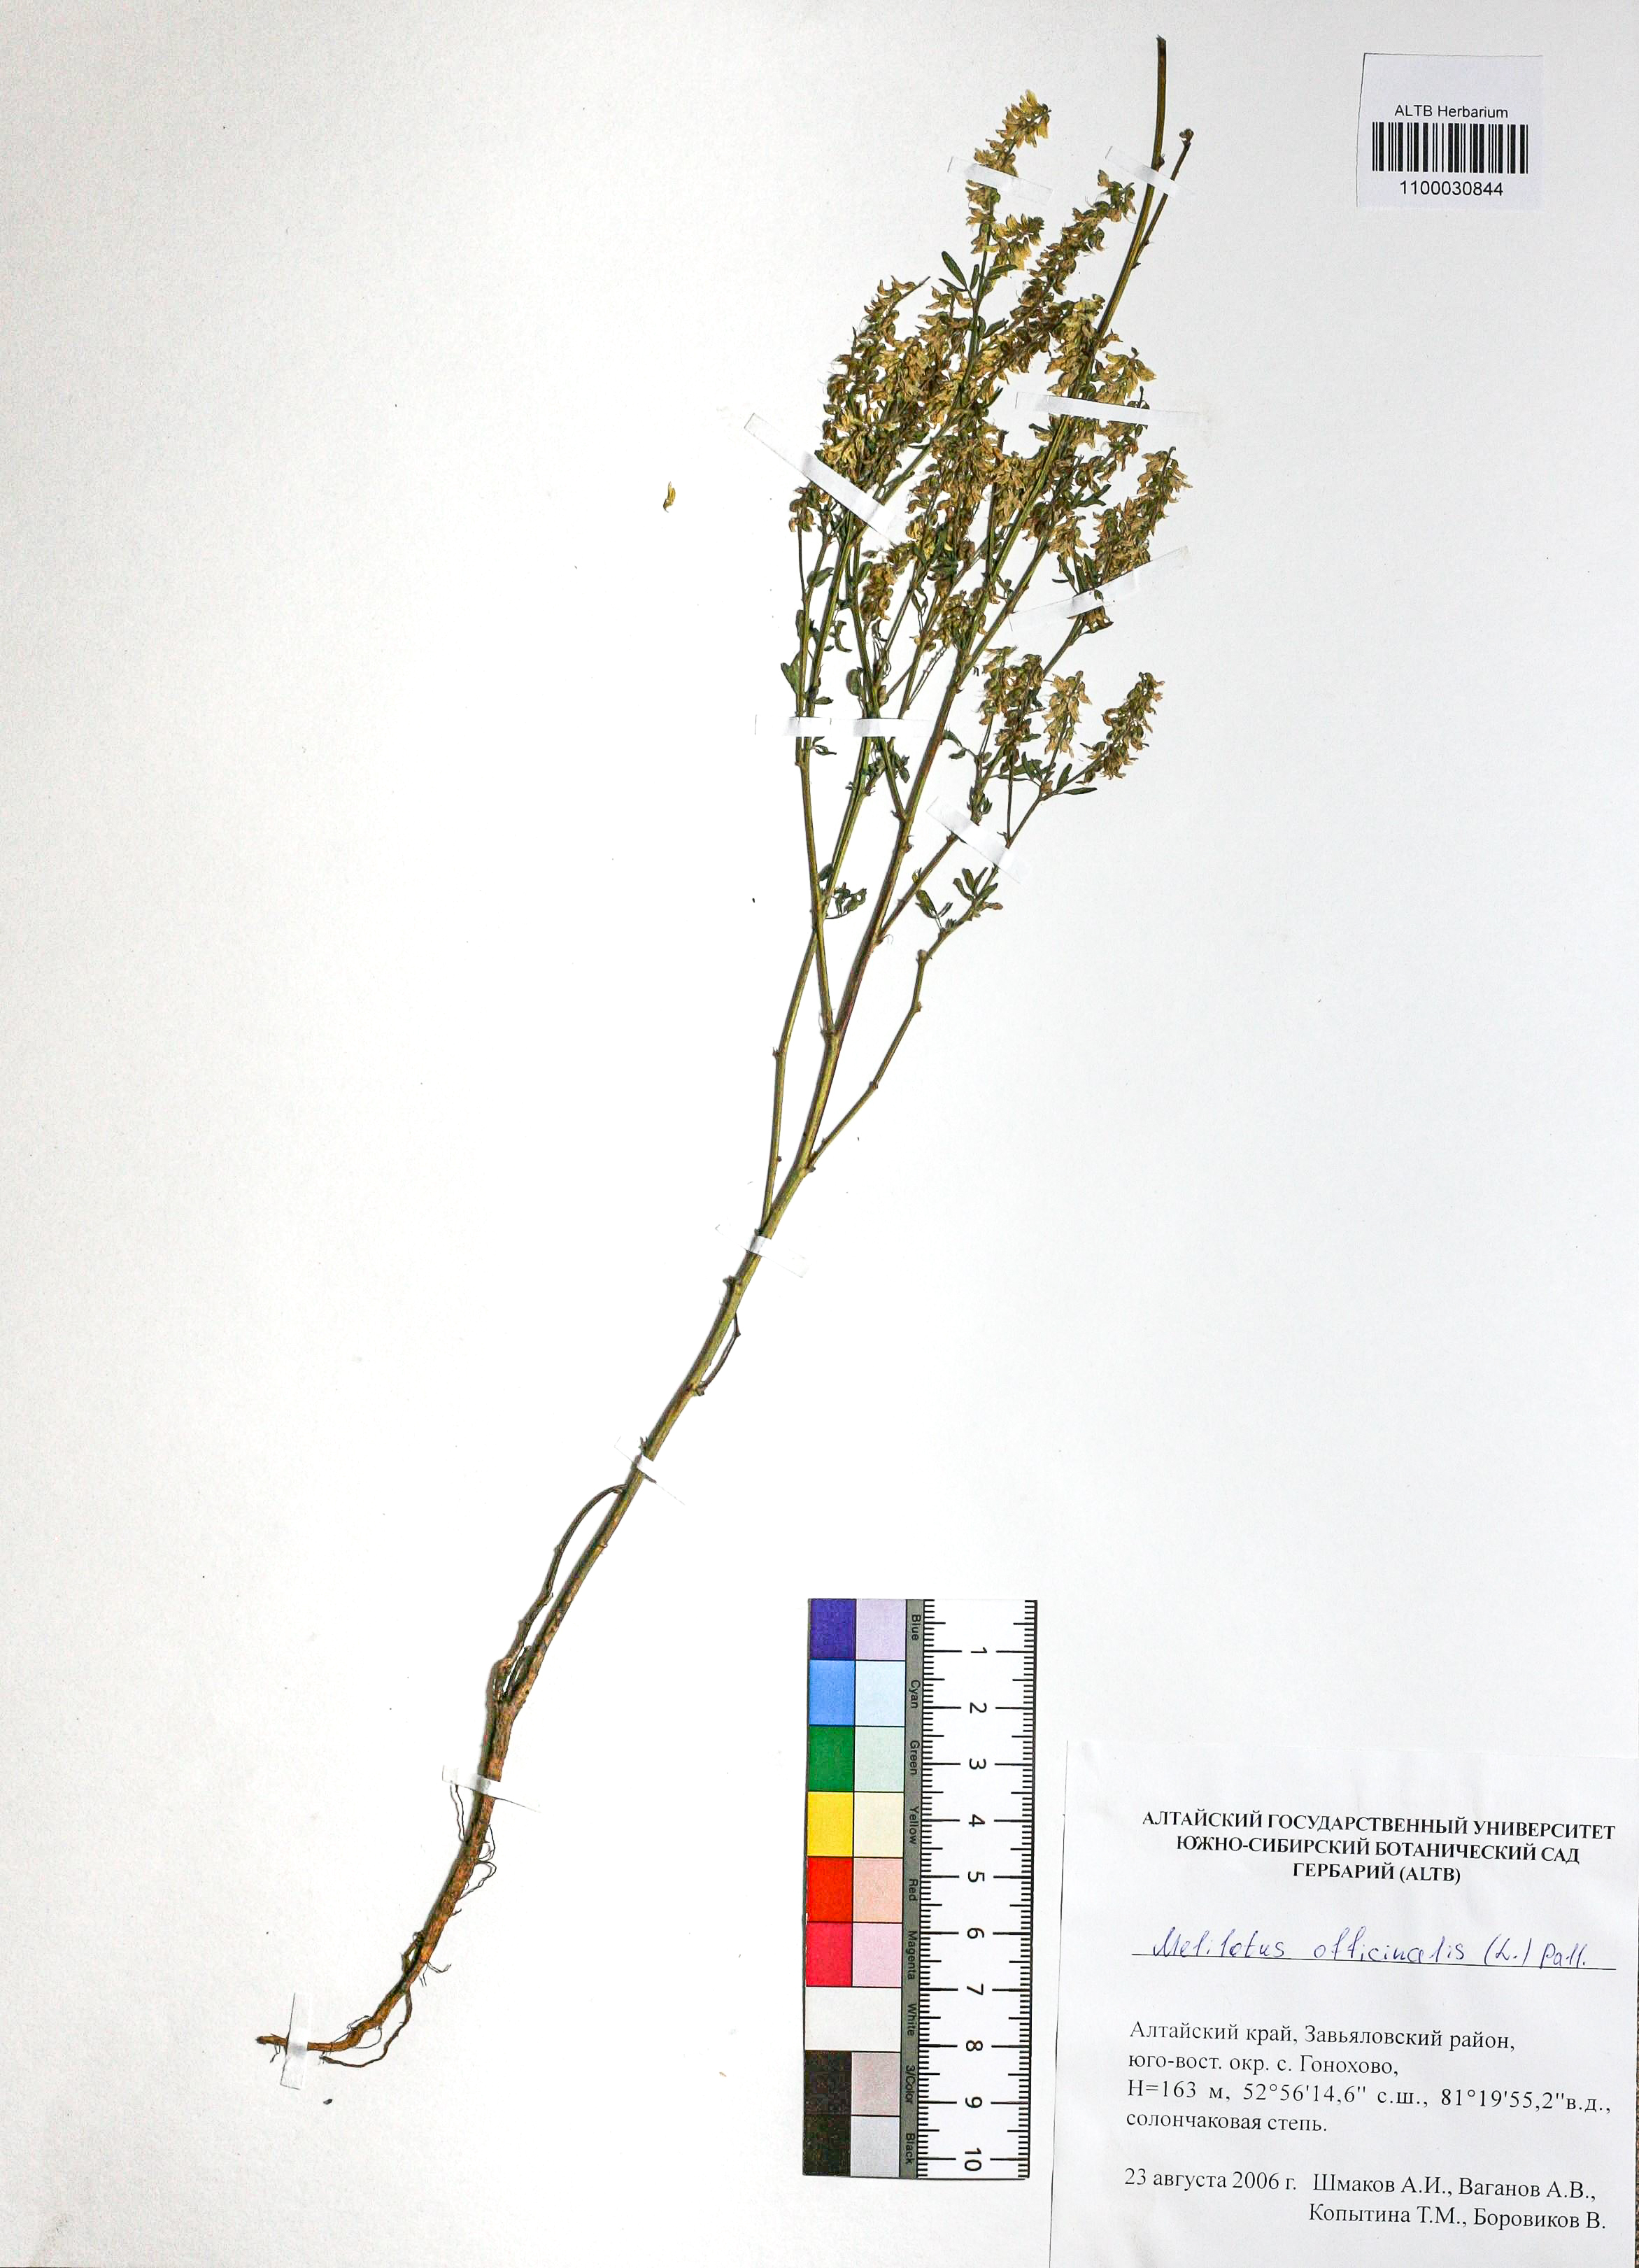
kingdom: Plantae
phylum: Tracheophyta
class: Magnoliopsida
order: Fabales
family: Fabaceae
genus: Melilotus
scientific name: Melilotus officinalis
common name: Sweetclover
